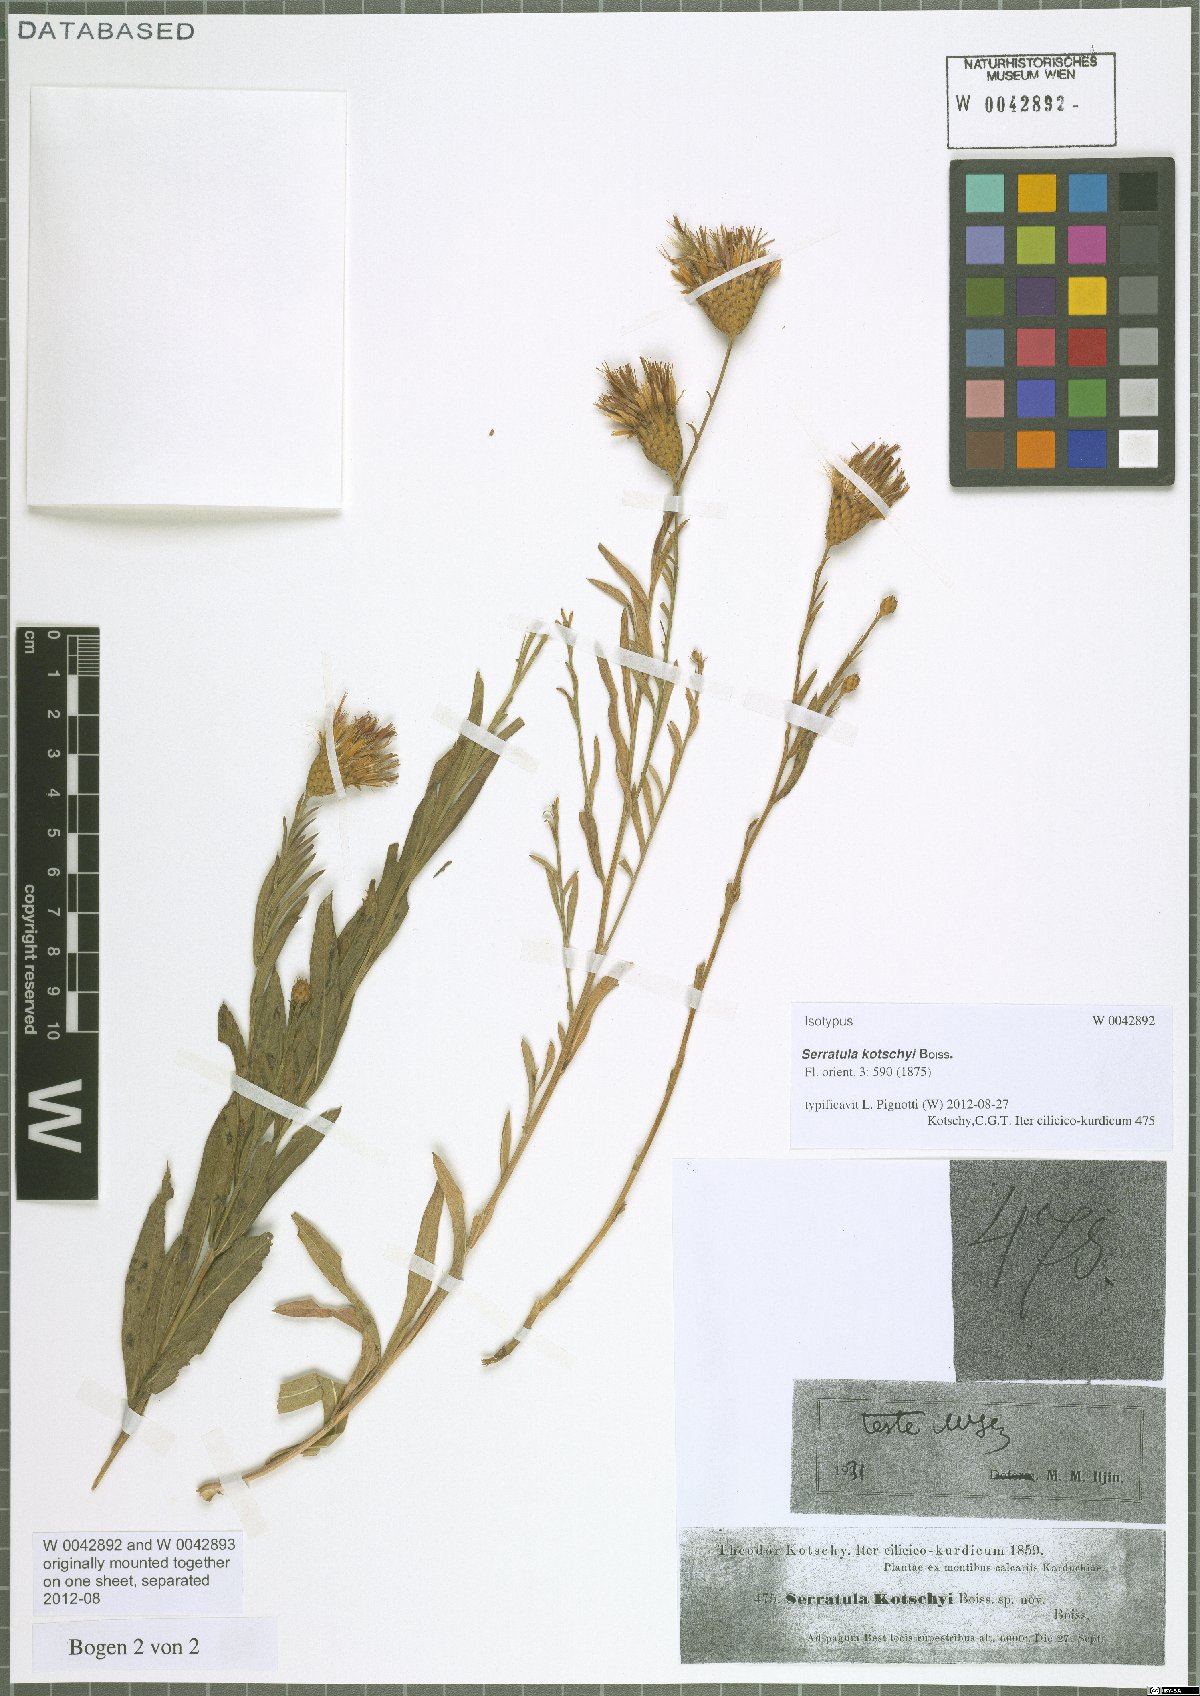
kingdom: Plantae
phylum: Tracheophyta
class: Magnoliopsida
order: Asterales
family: Asteraceae
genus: Klasea
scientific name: Klasea kotschyi
